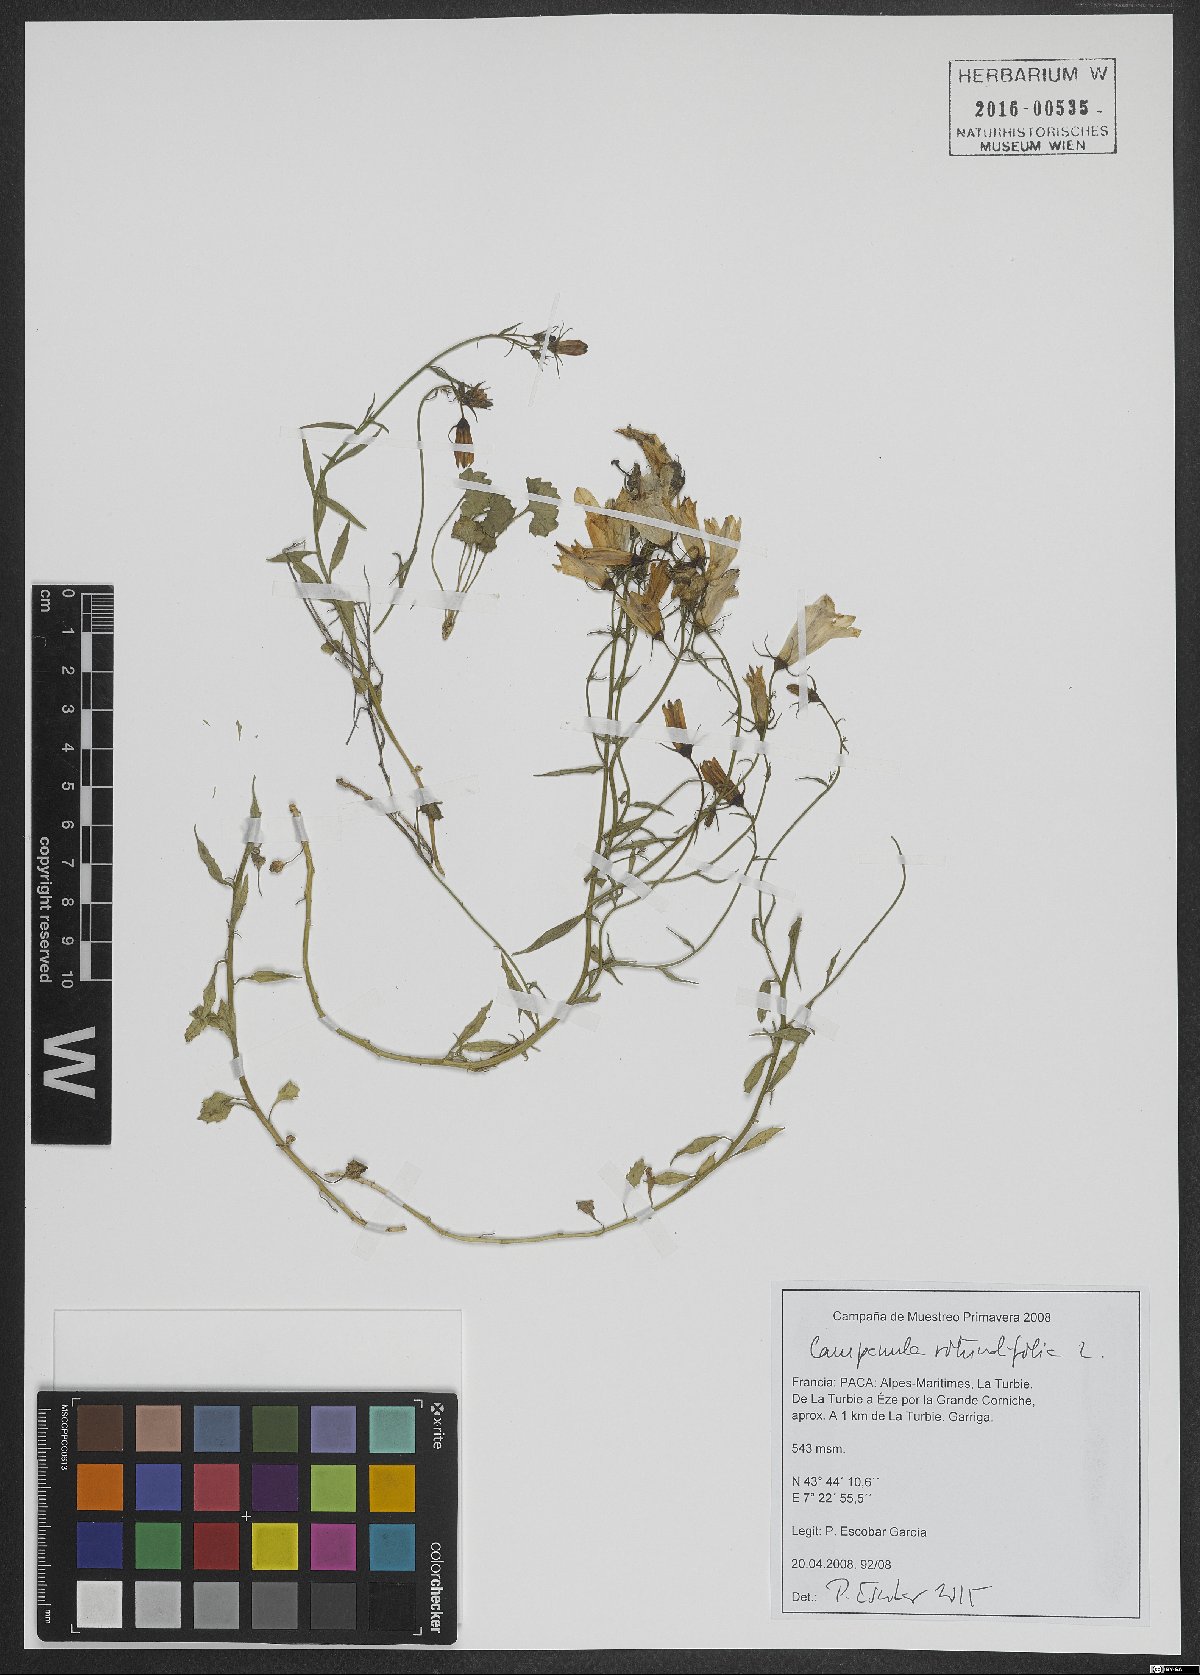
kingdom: Plantae
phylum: Tracheophyta
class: Magnoliopsida
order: Asterales
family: Campanulaceae
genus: Campanula
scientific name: Campanula rotundifolia
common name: Harebell
